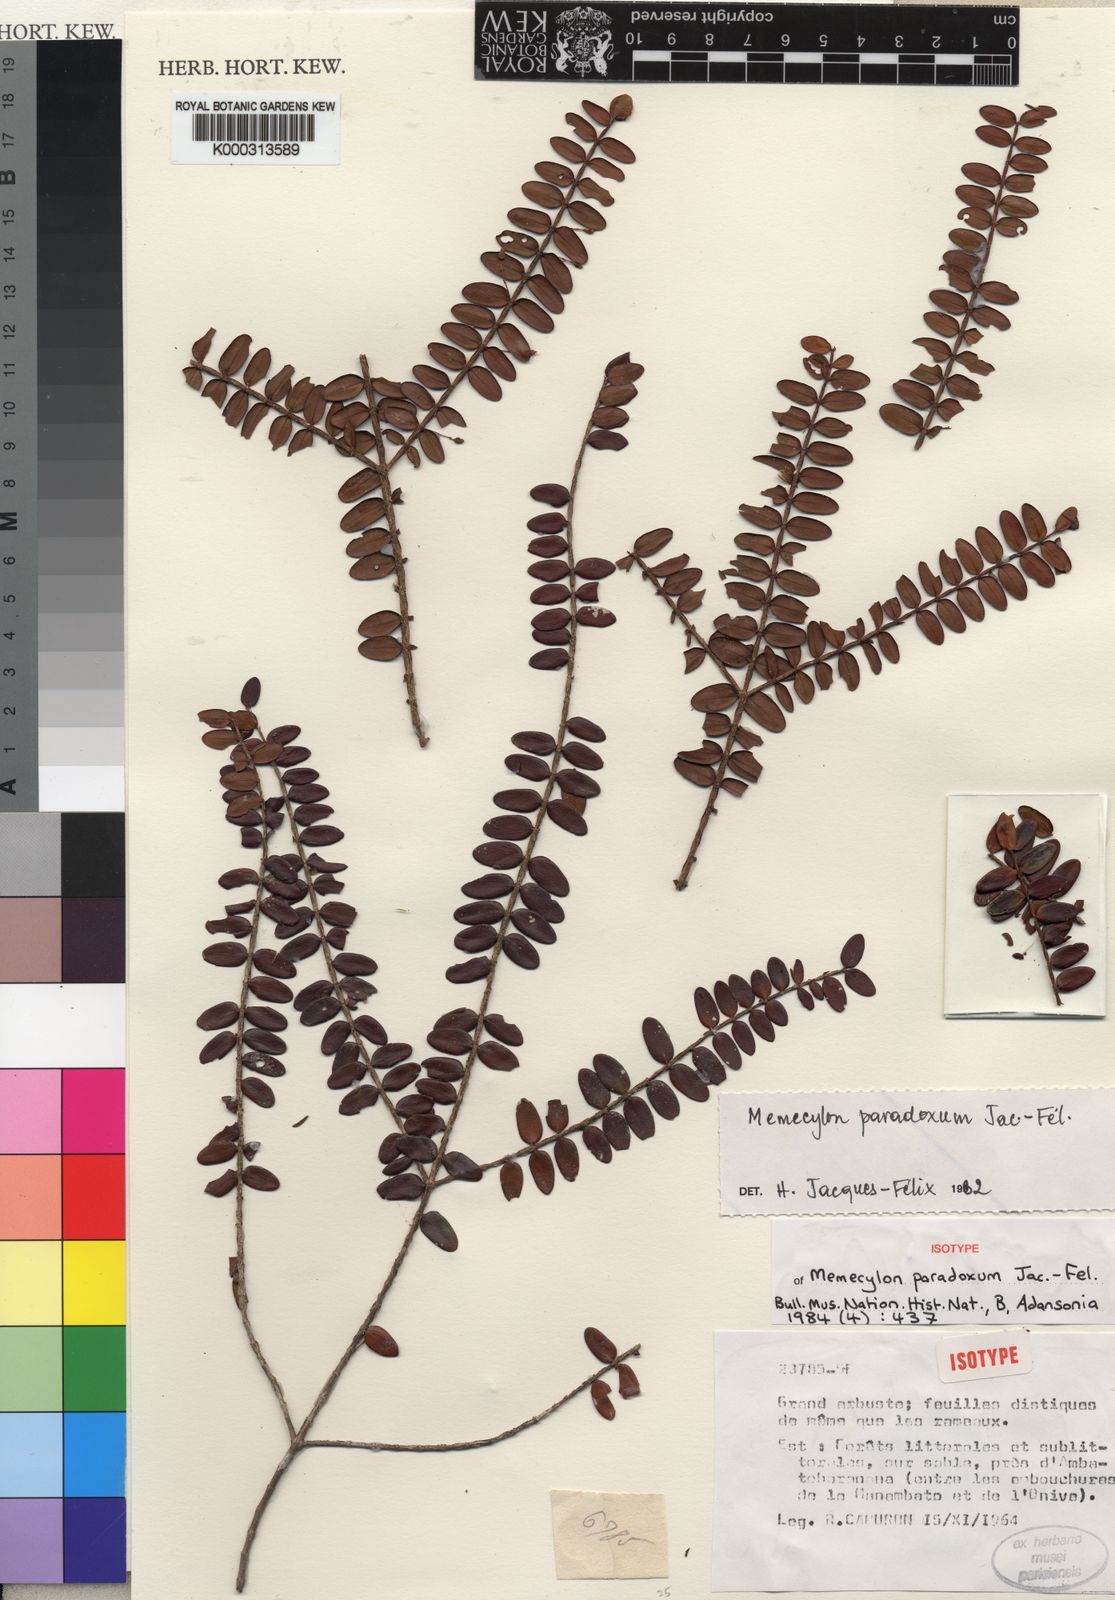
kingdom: Plantae
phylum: Tracheophyta
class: Magnoliopsida
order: Myrtales
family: Melastomataceae
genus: Memecylon
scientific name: Memecylon
